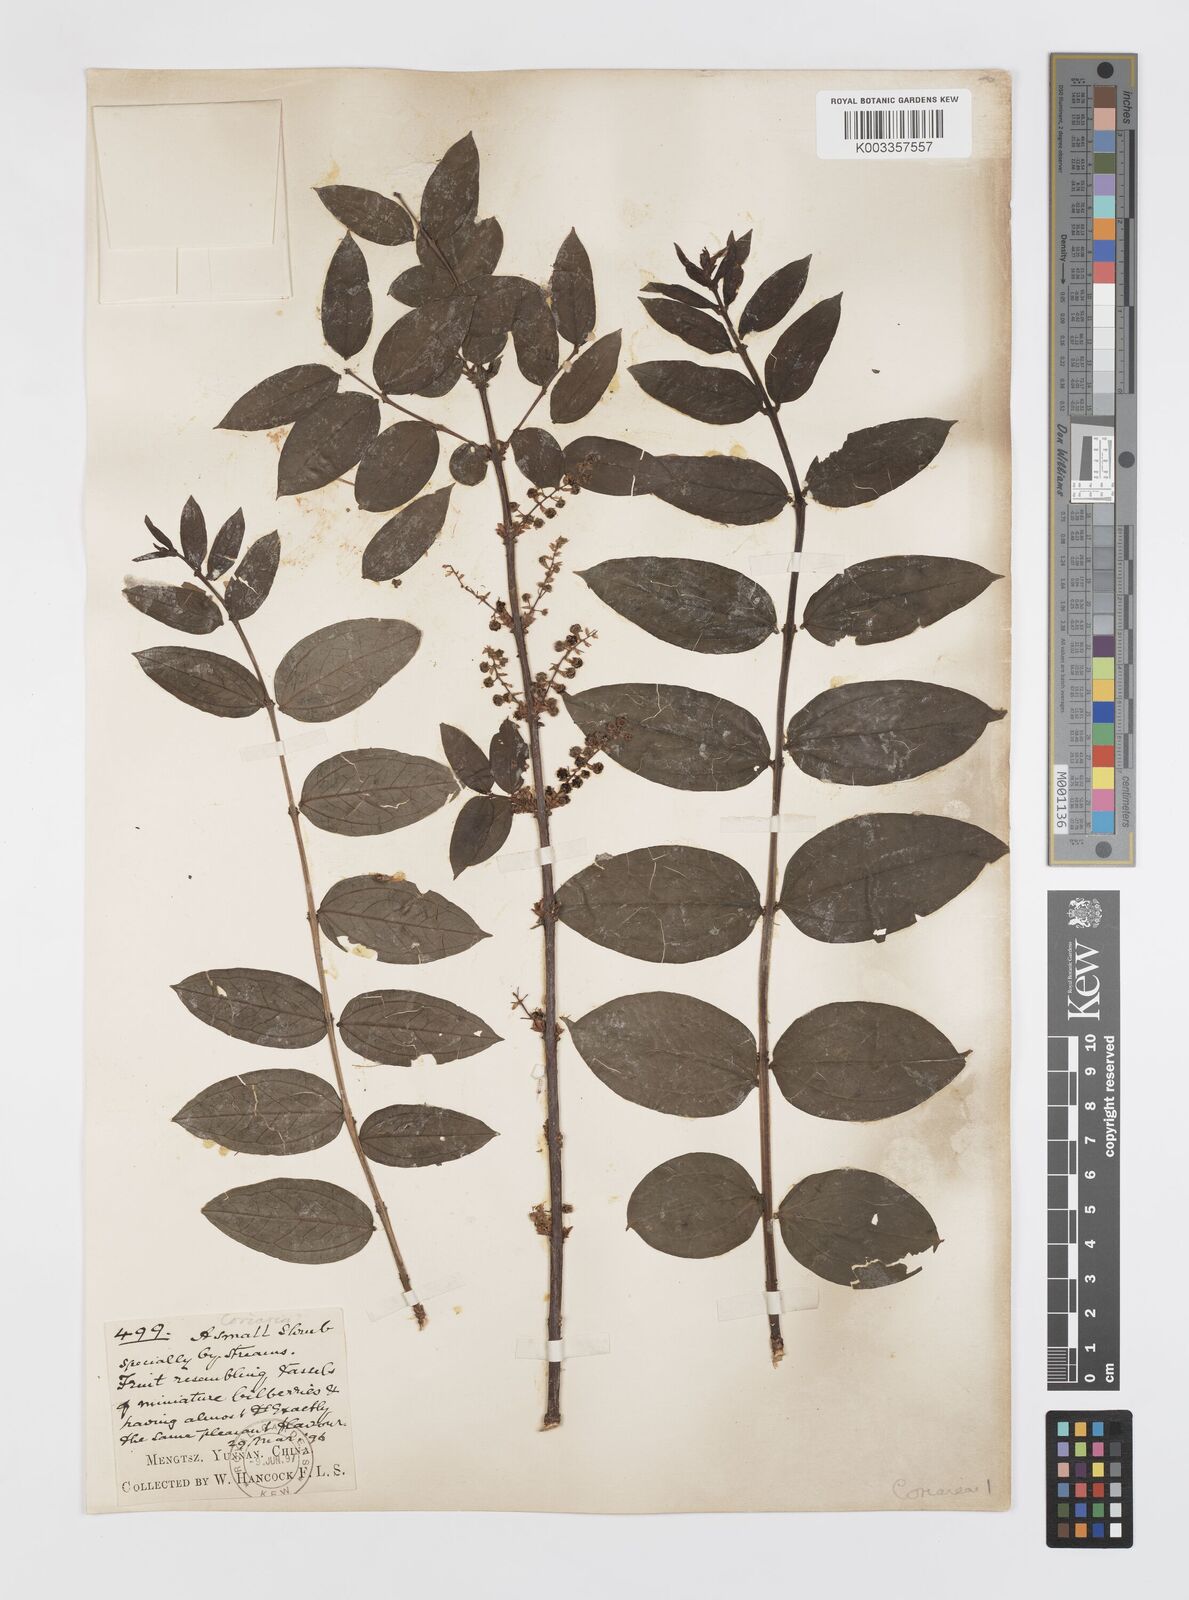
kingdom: Plantae
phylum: Tracheophyta
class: Magnoliopsida
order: Cucurbitales
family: Coriariaceae
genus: Coriaria
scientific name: Coriaria napalensis
